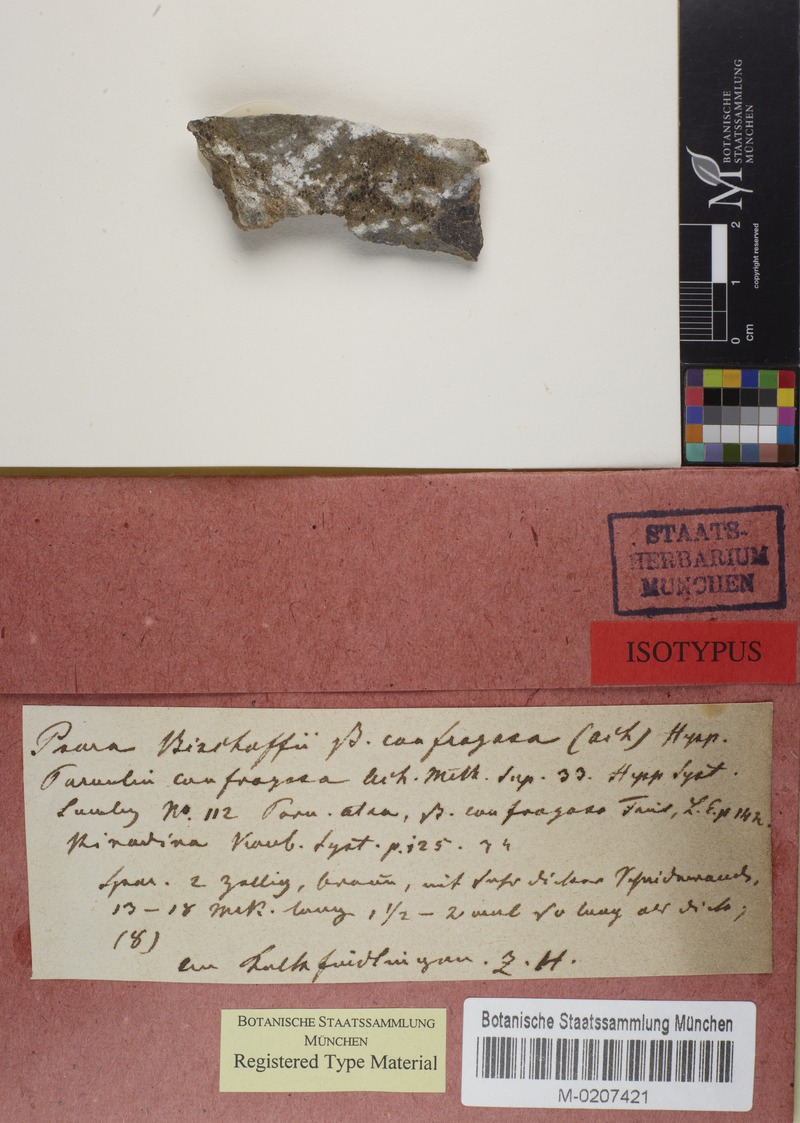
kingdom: Fungi
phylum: Ascomycota
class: Lecanoromycetes
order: Caliciales
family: Physciaceae
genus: Rinodina
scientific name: Rinodina bischoffii
